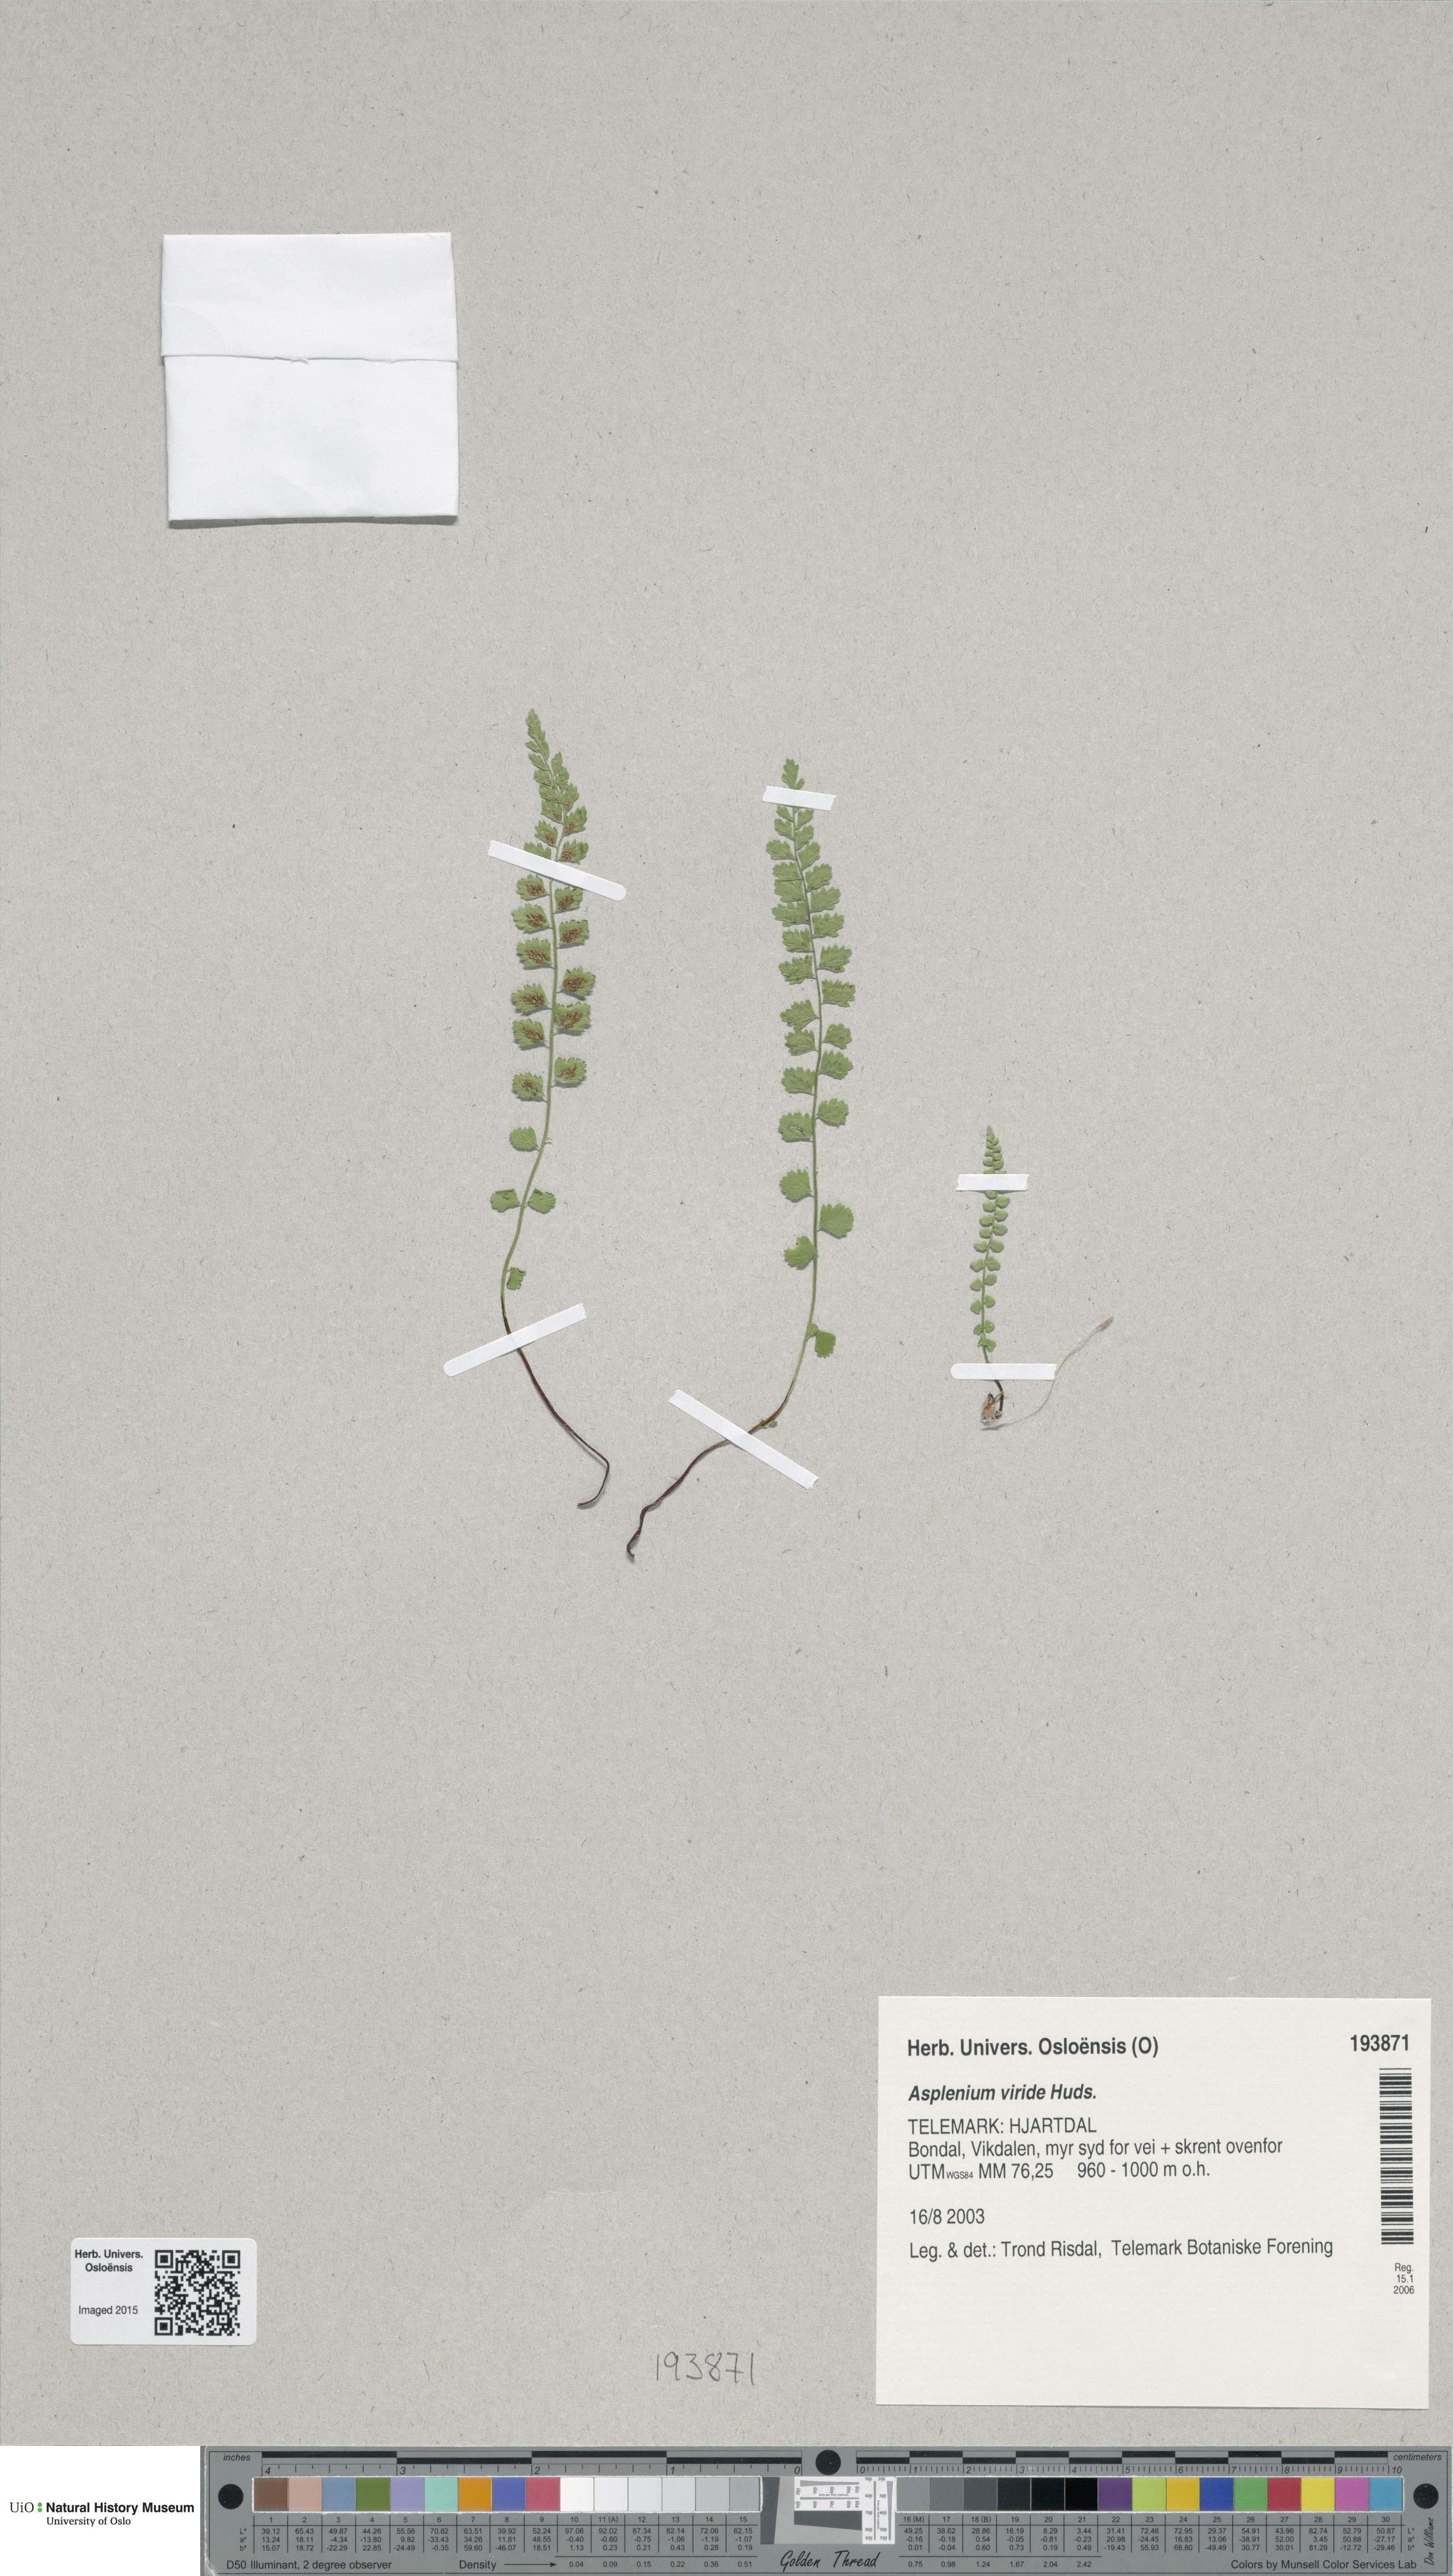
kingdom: Plantae
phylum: Tracheophyta
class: Polypodiopsida
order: Polypodiales
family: Aspleniaceae
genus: Asplenium
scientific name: Asplenium viride
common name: Green spleenwort
